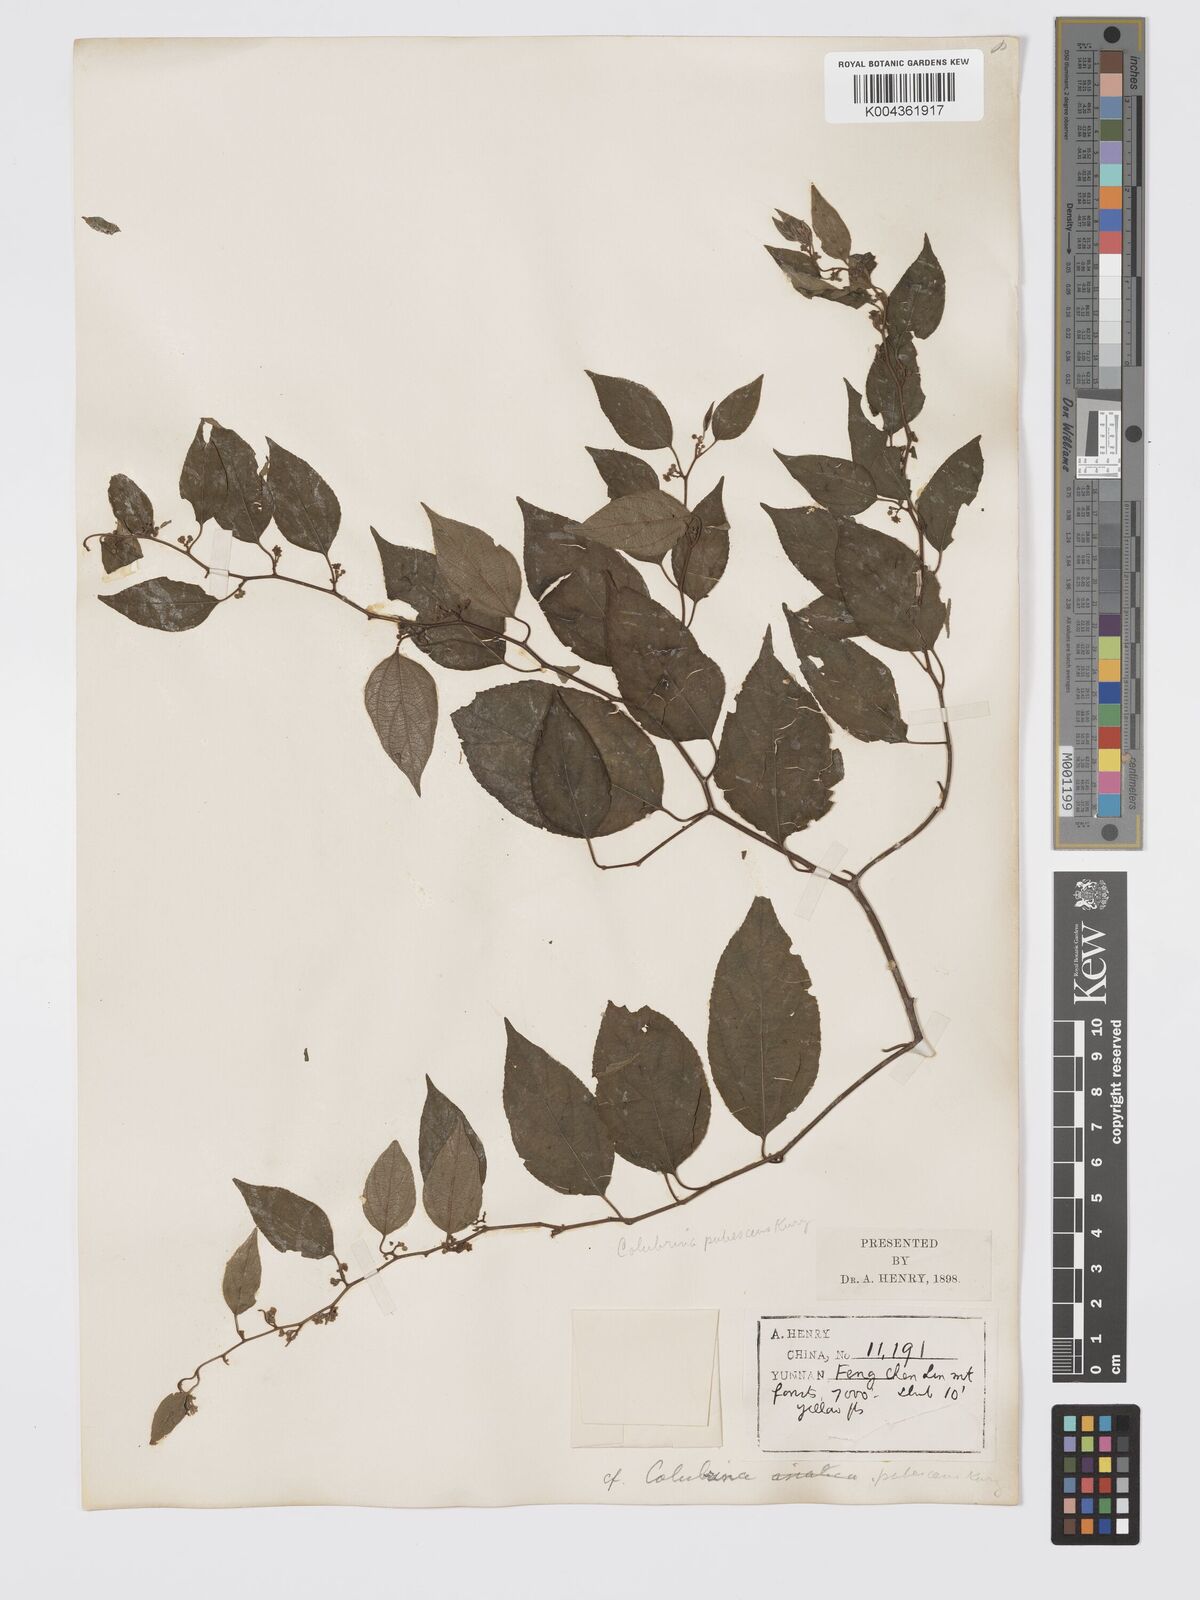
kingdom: Plantae
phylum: Tracheophyta
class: Magnoliopsida
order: Rosales
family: Rhamnaceae
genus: Colubrina
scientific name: Colubrina asiatica
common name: Asian nakedwood
